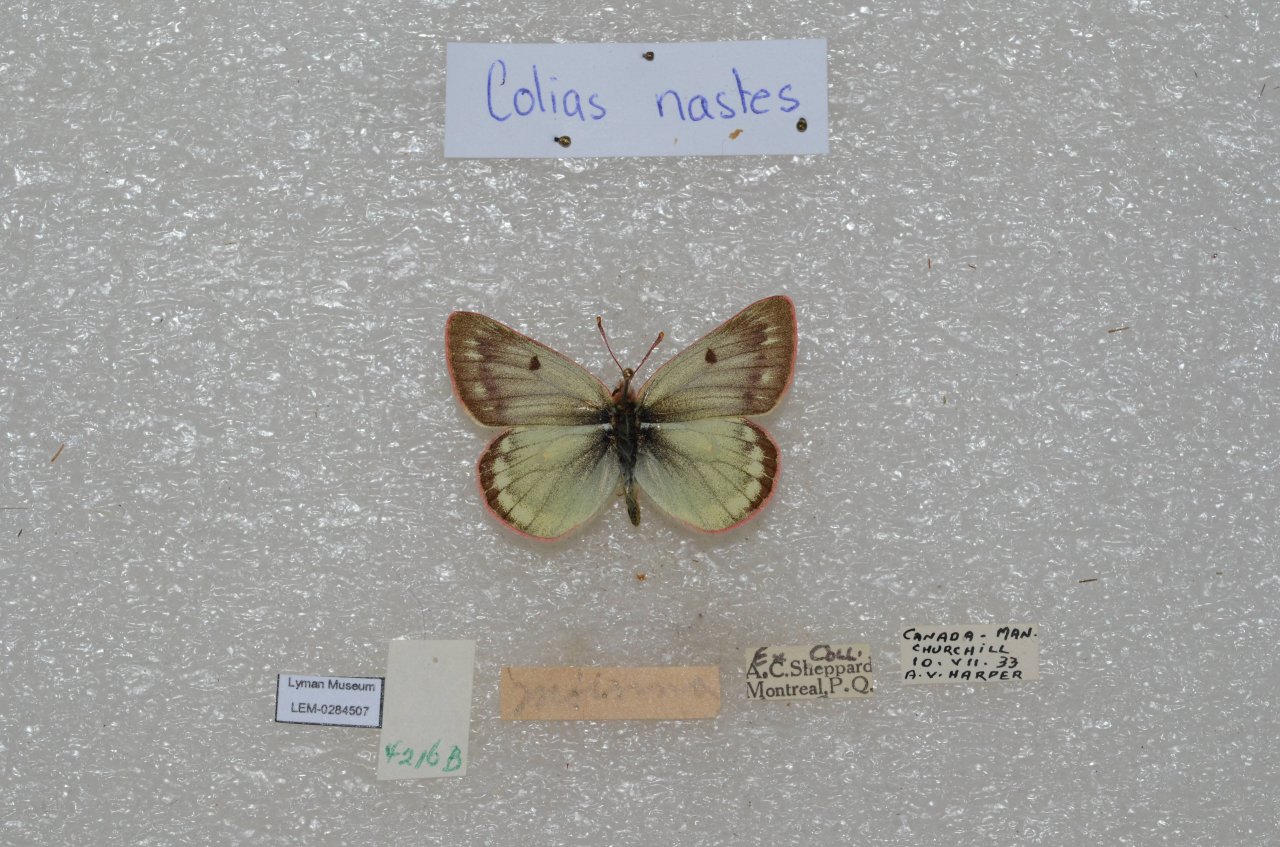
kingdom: Animalia
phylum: Arthropoda
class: Insecta
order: Lepidoptera
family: Pieridae
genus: Colias
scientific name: Colias nastes
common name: Labrador Sulphur
